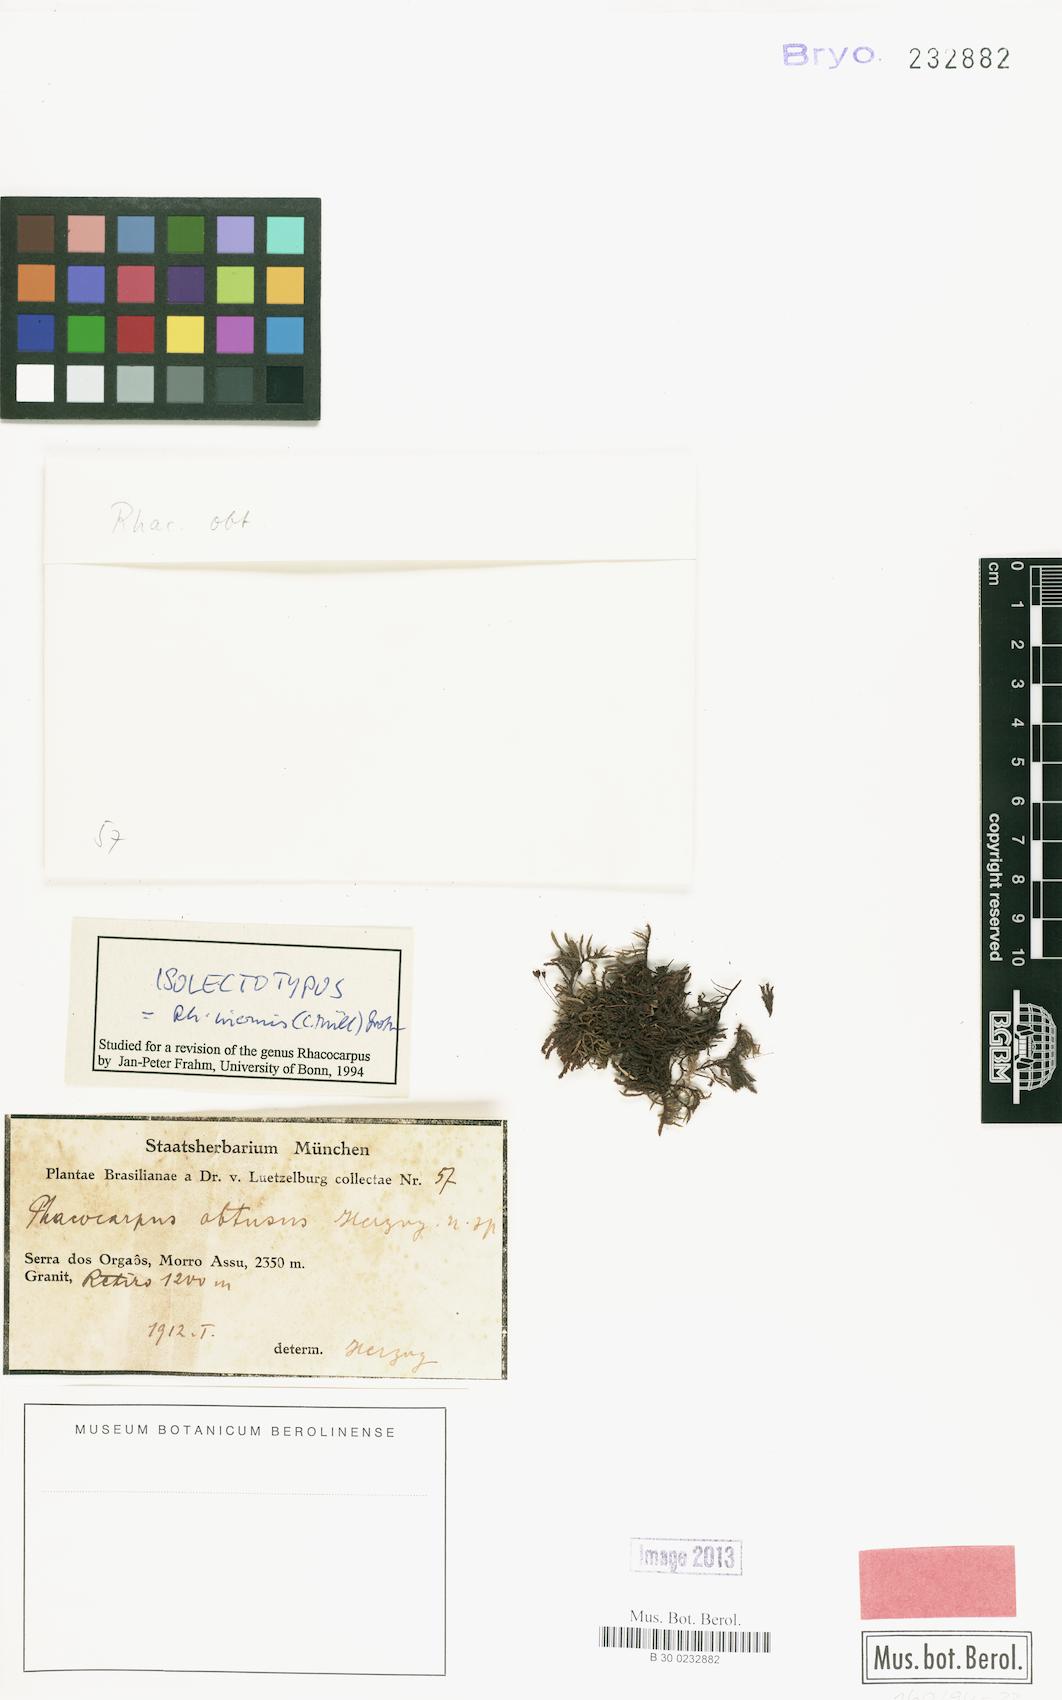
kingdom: Plantae
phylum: Bryophyta
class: Bryopsida
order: Hedwigiales
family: Hedwigiaceae
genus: Rhacocarpus
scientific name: Rhacocarpus inermis
